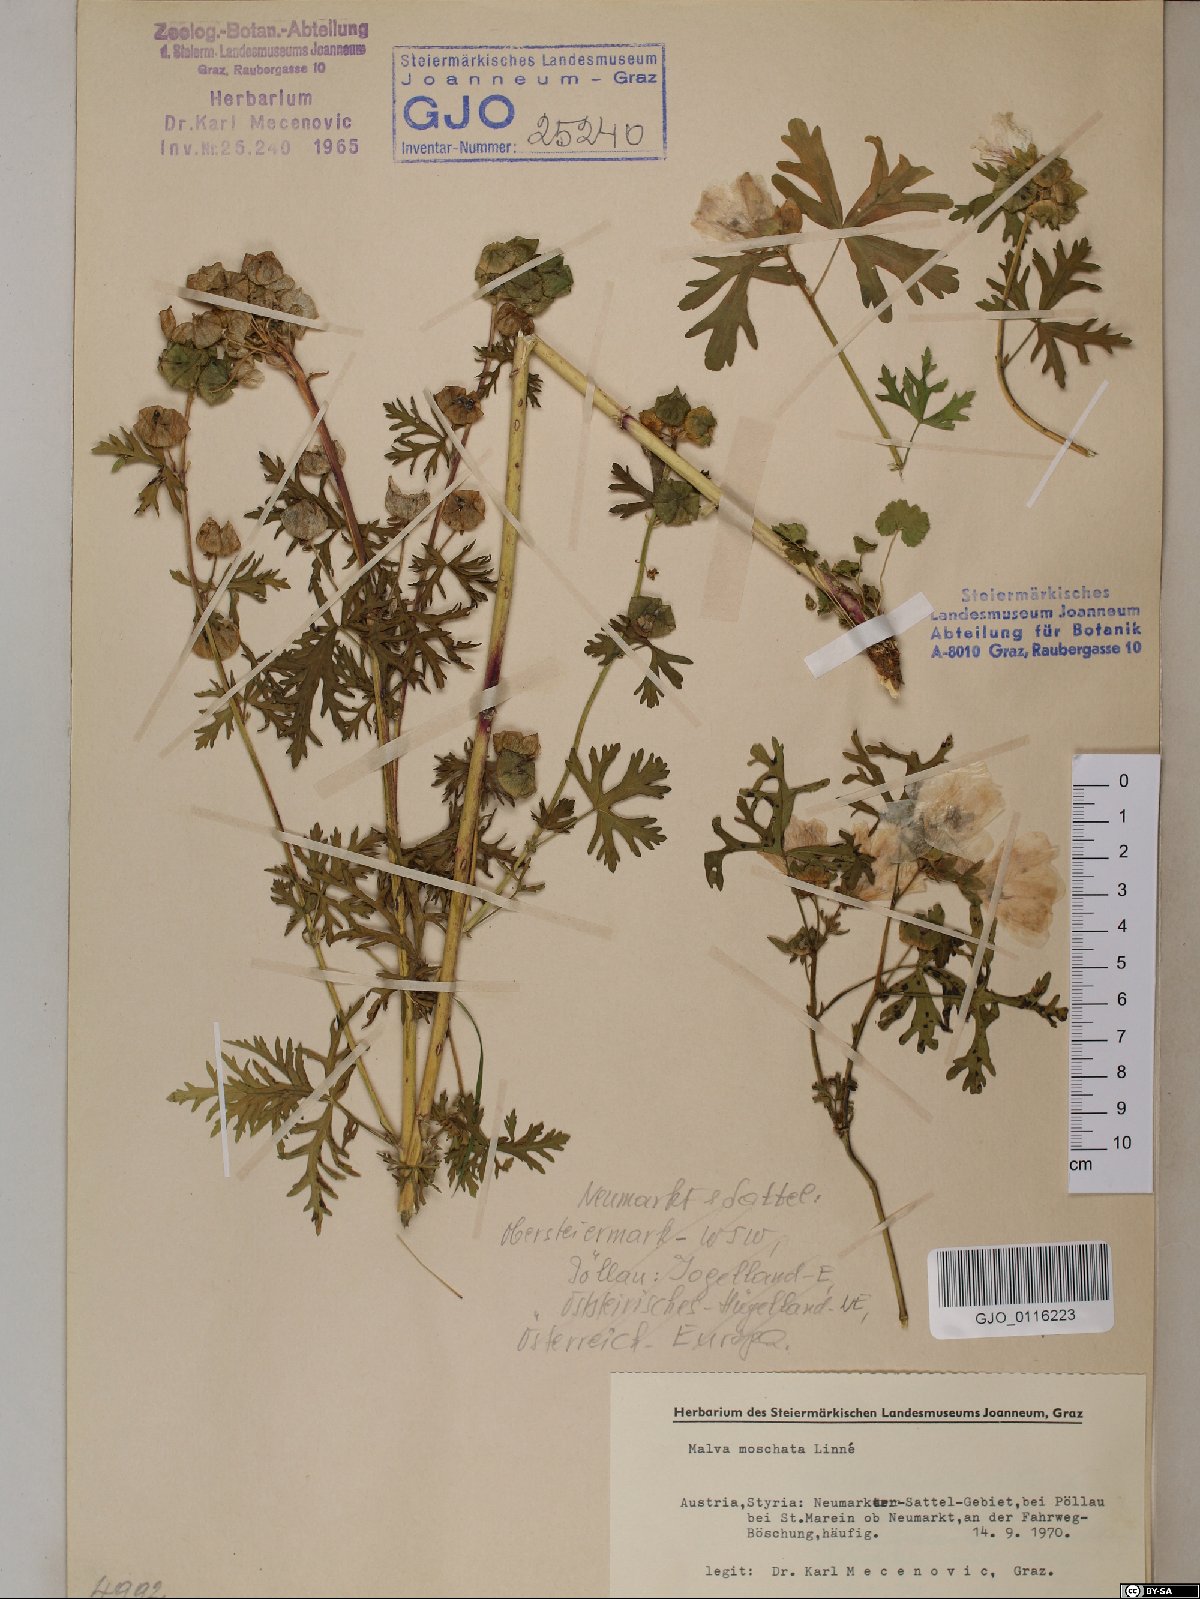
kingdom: Plantae
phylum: Tracheophyta
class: Magnoliopsida
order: Malvales
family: Malvaceae
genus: Malva
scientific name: Malva moschata
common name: Musk mallow
